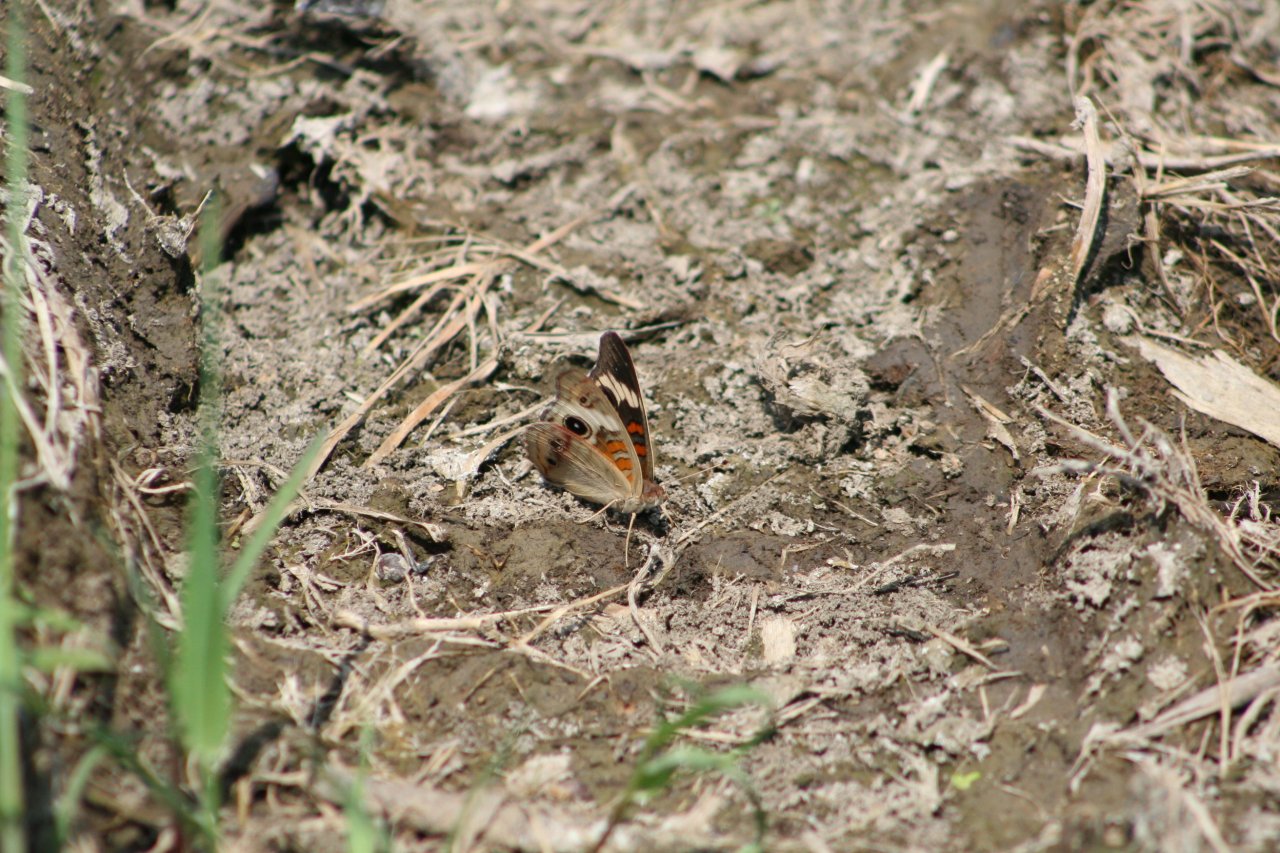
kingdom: Animalia
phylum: Arthropoda
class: Insecta
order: Lepidoptera
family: Nymphalidae
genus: Junonia
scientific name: Junonia coenia
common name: Common Buckeye
